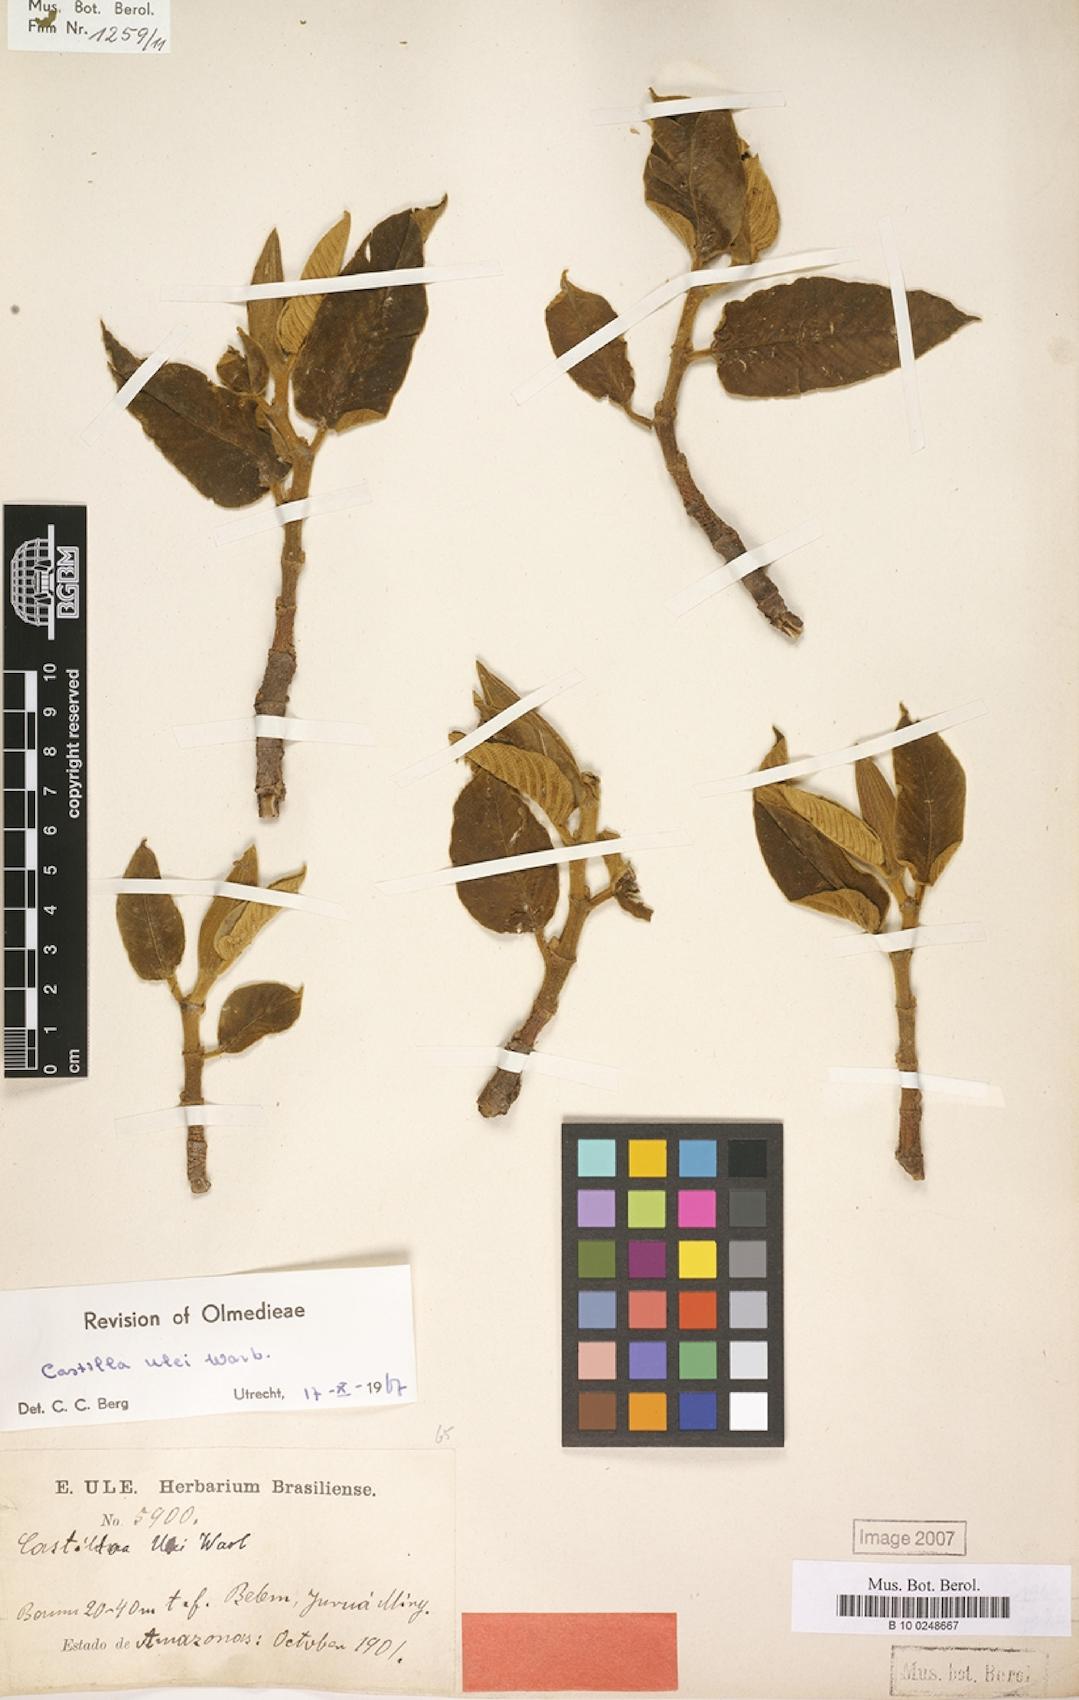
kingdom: Plantae
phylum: Tracheophyta
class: Magnoliopsida
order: Rosales
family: Moraceae
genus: Castilla
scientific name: Castilla ulei
